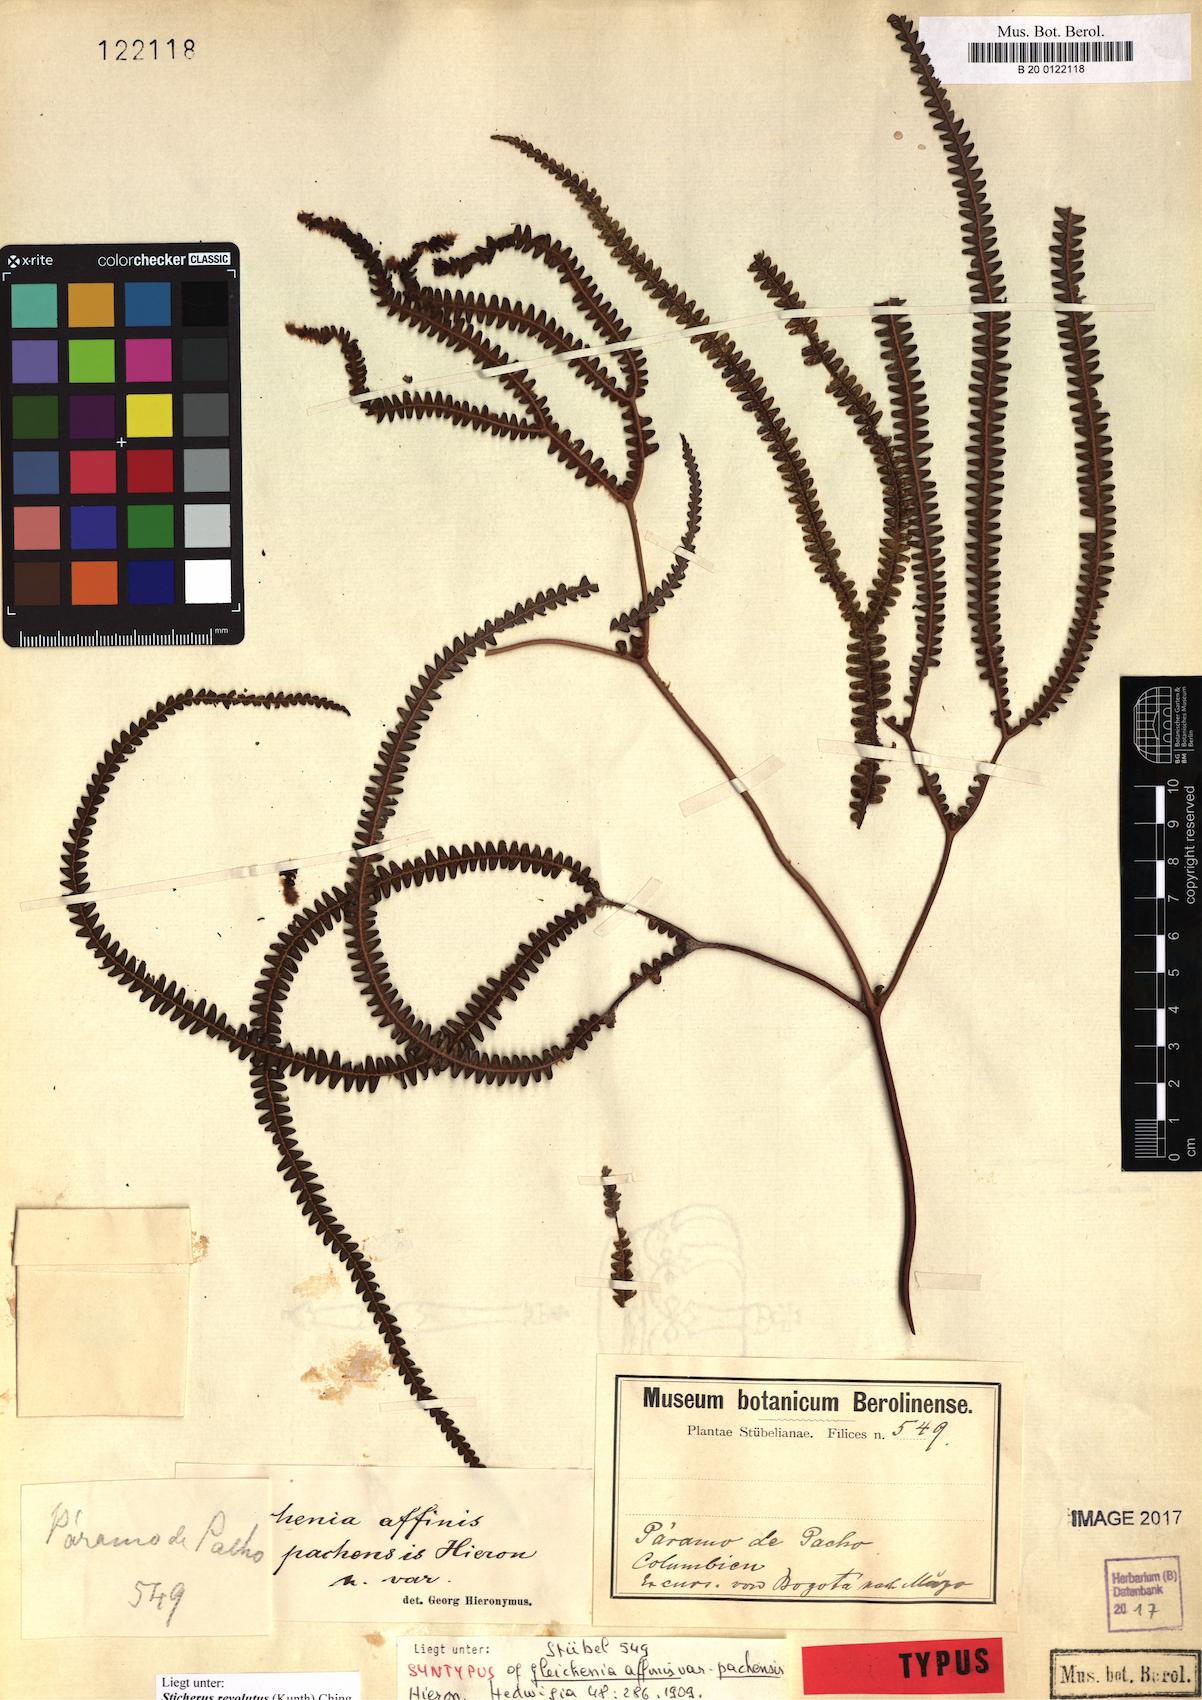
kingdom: Plantae
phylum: Tracheophyta
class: Polypodiopsida
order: Gleicheniales
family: Gleicheniaceae
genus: Sticherus
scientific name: Sticherus revolutus
